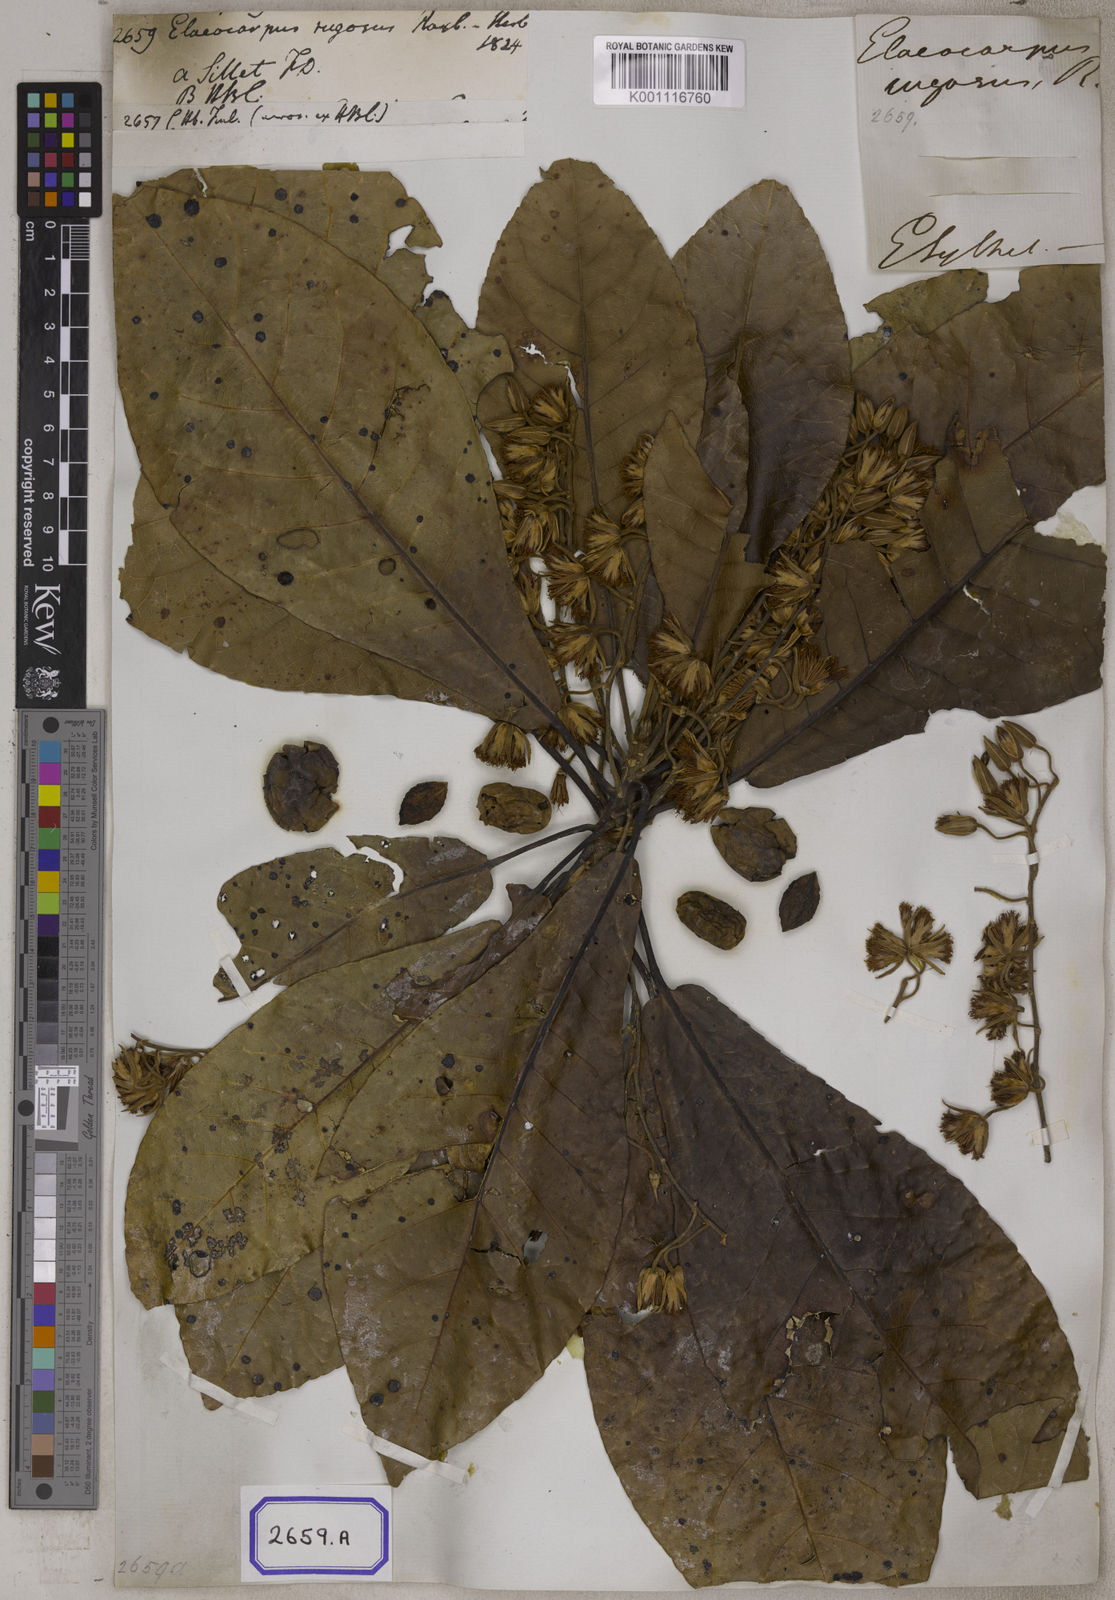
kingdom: Plantae
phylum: Tracheophyta
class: Magnoliopsida
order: Oxalidales
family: Elaeocarpaceae
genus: Elaeocarpus
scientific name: Elaeocarpus
